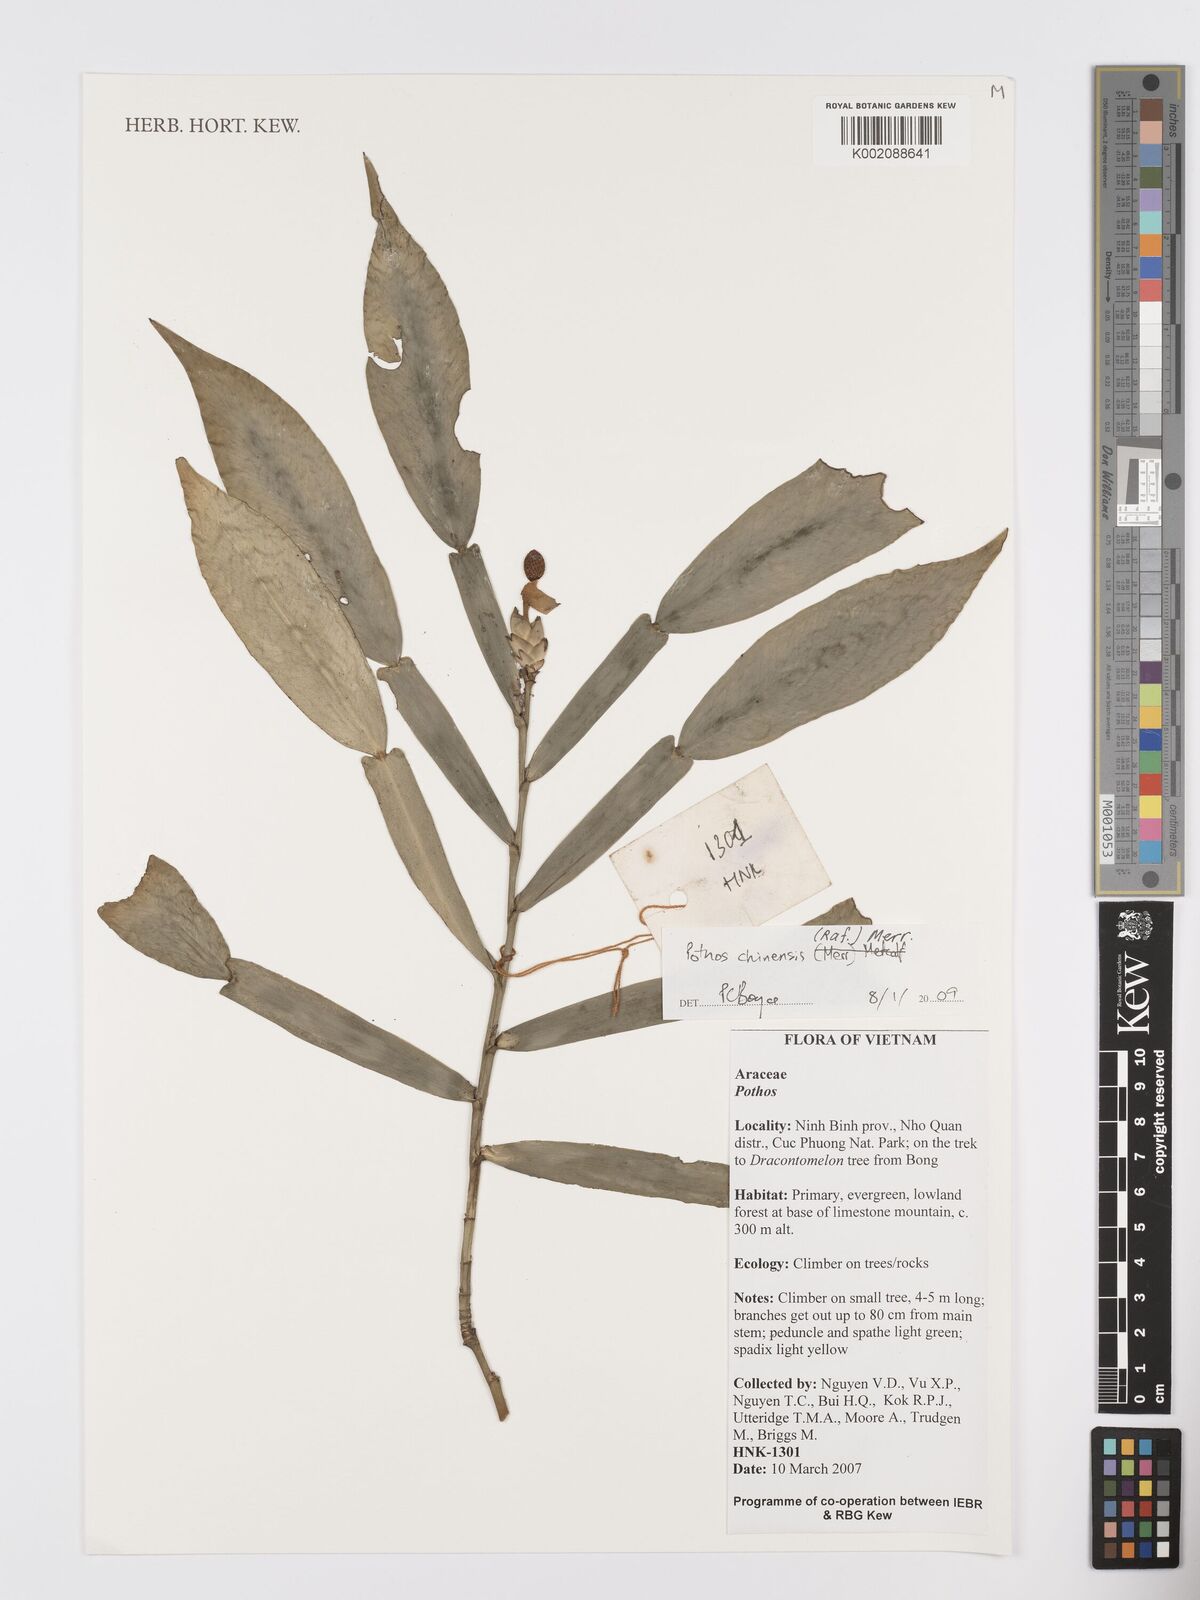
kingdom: Plantae
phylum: Tracheophyta
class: Liliopsida
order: Alismatales
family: Araceae
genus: Pothos
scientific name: Pothos chinensis
